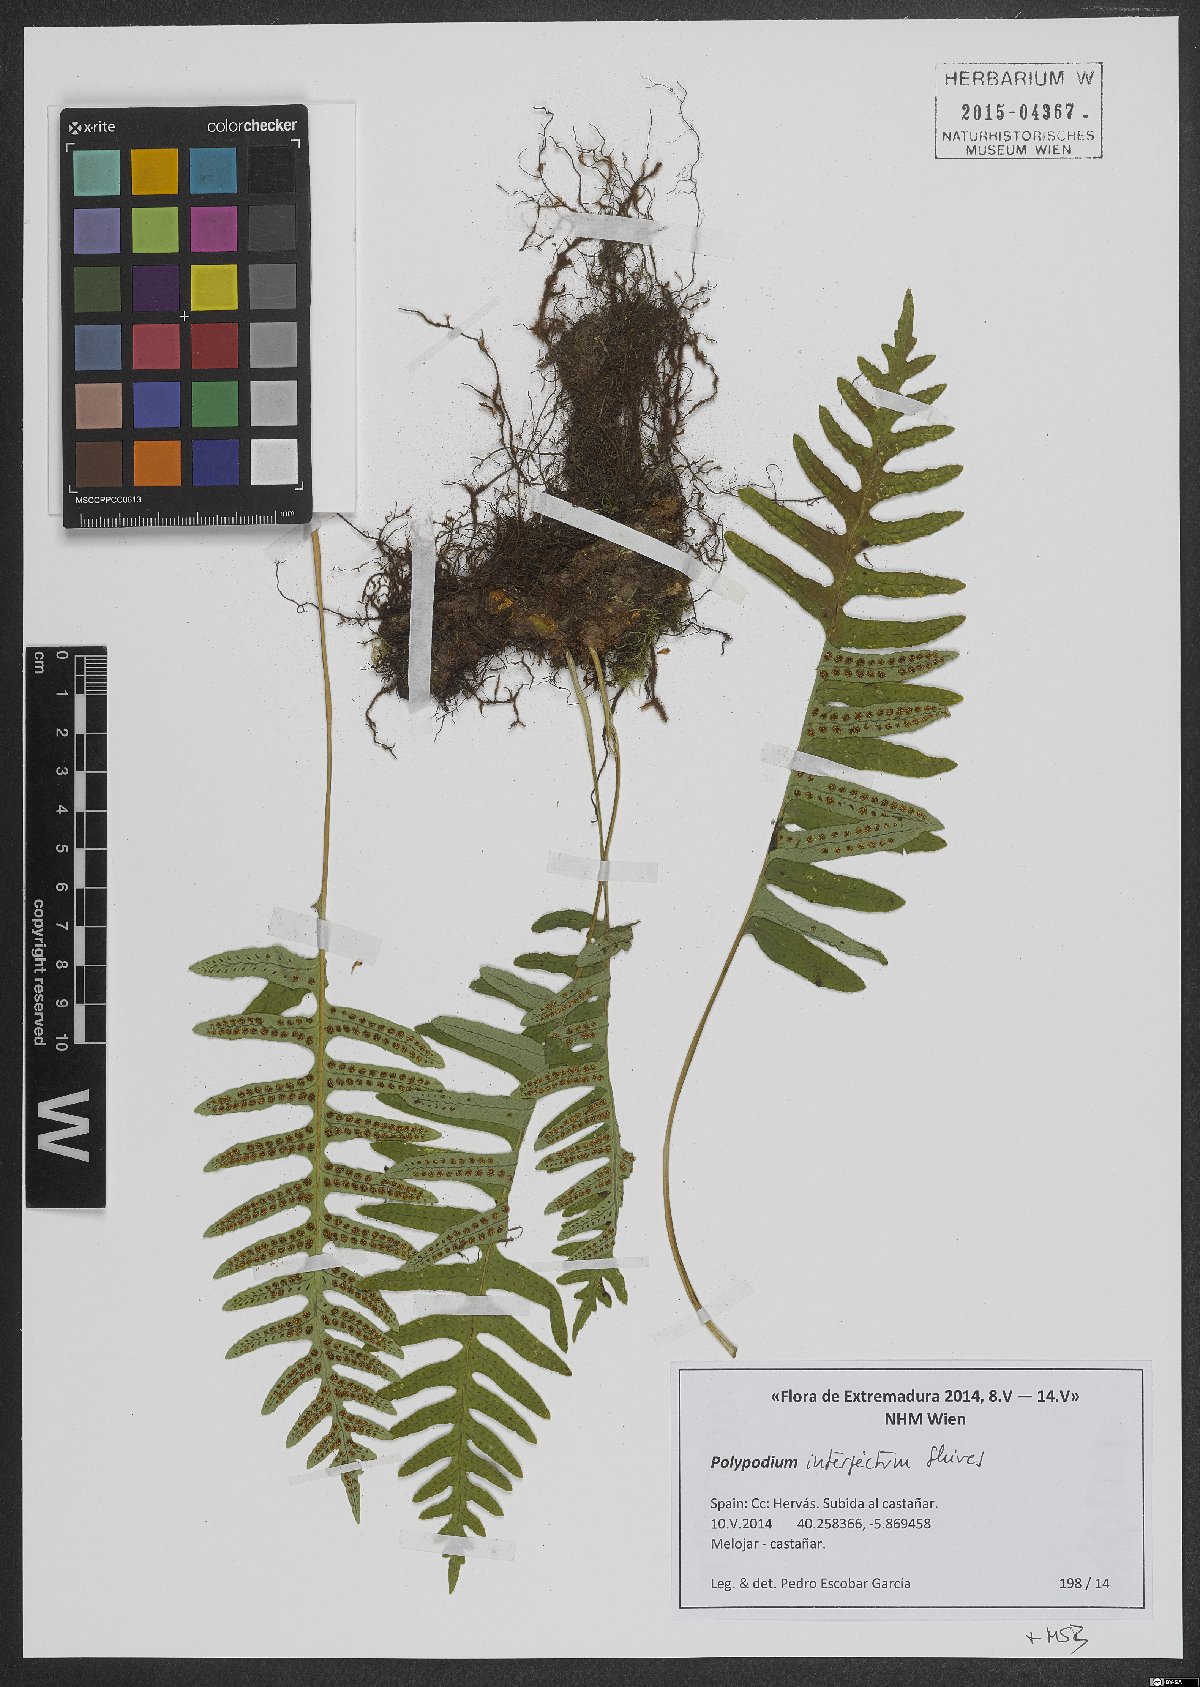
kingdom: Plantae
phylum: Tracheophyta
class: Polypodiopsida
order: Polypodiales
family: Polypodiaceae
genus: Polypodium
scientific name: Polypodium interjectum
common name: Intermediate polypody
